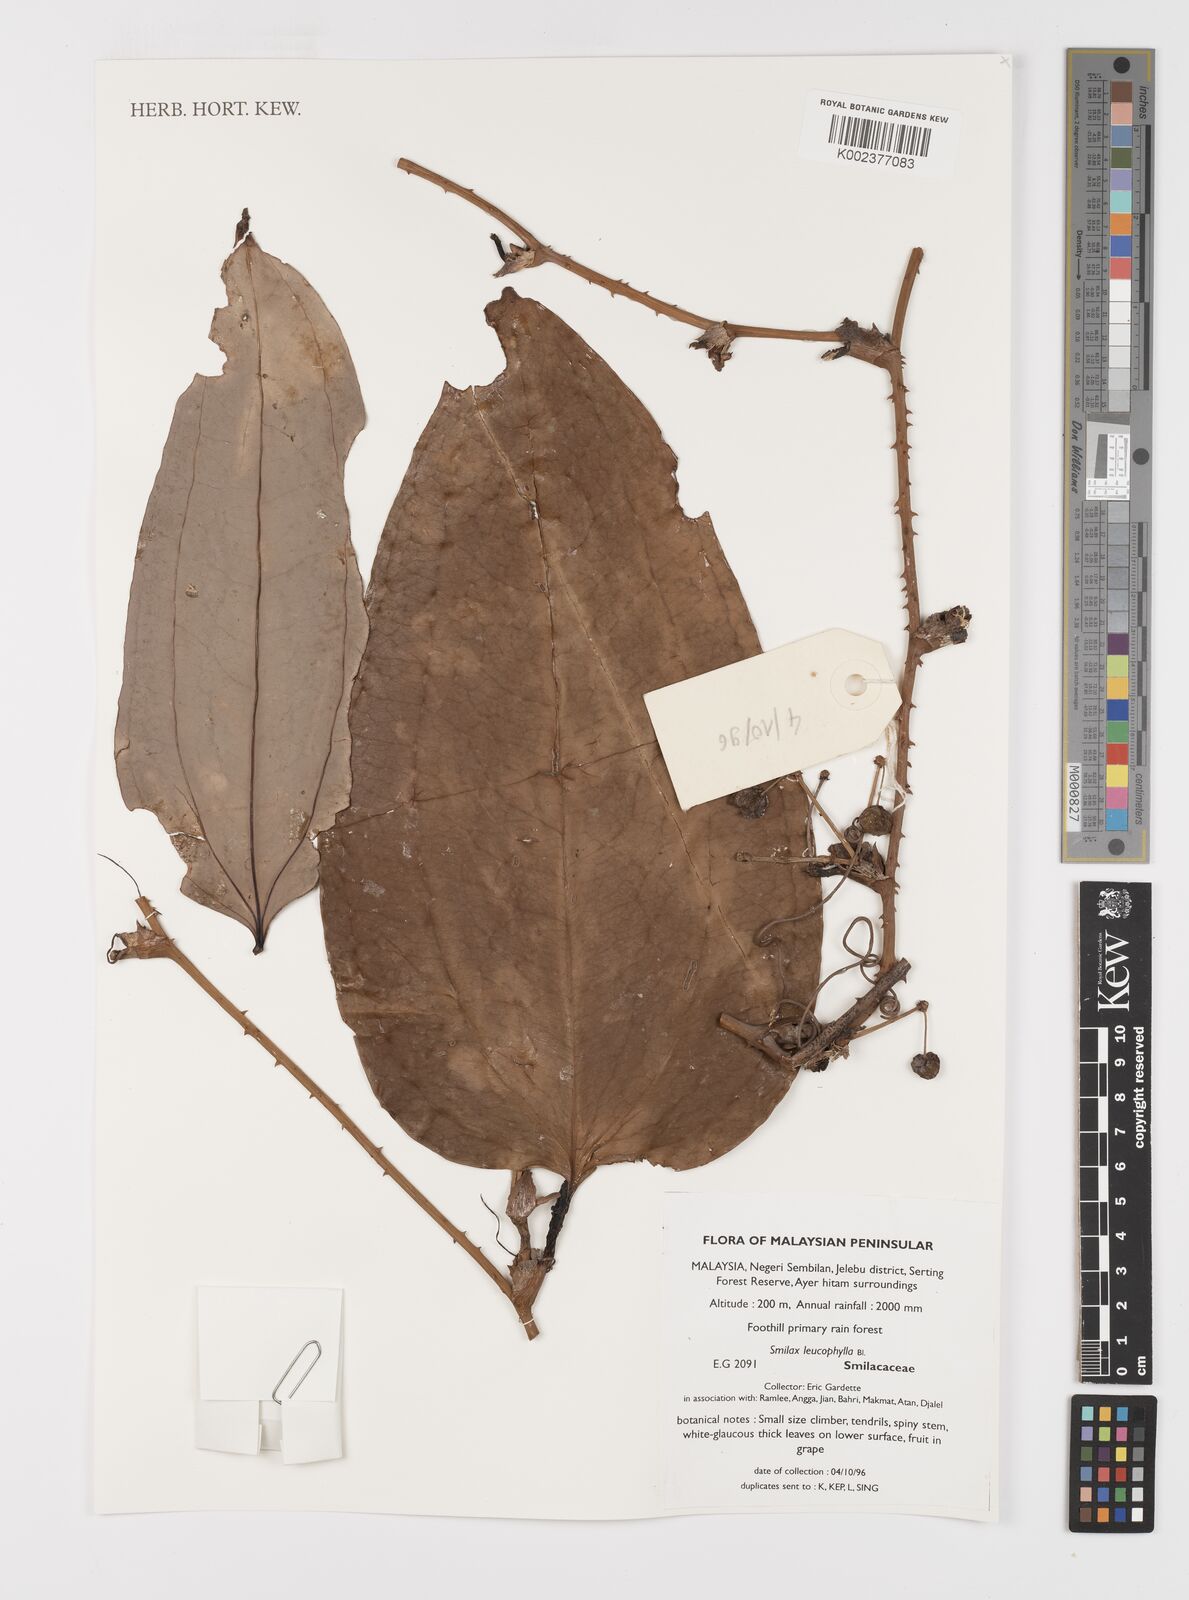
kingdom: Plantae
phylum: Tracheophyta
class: Liliopsida
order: Liliales
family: Smilacaceae
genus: Smilax
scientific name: Smilax leucophylla
